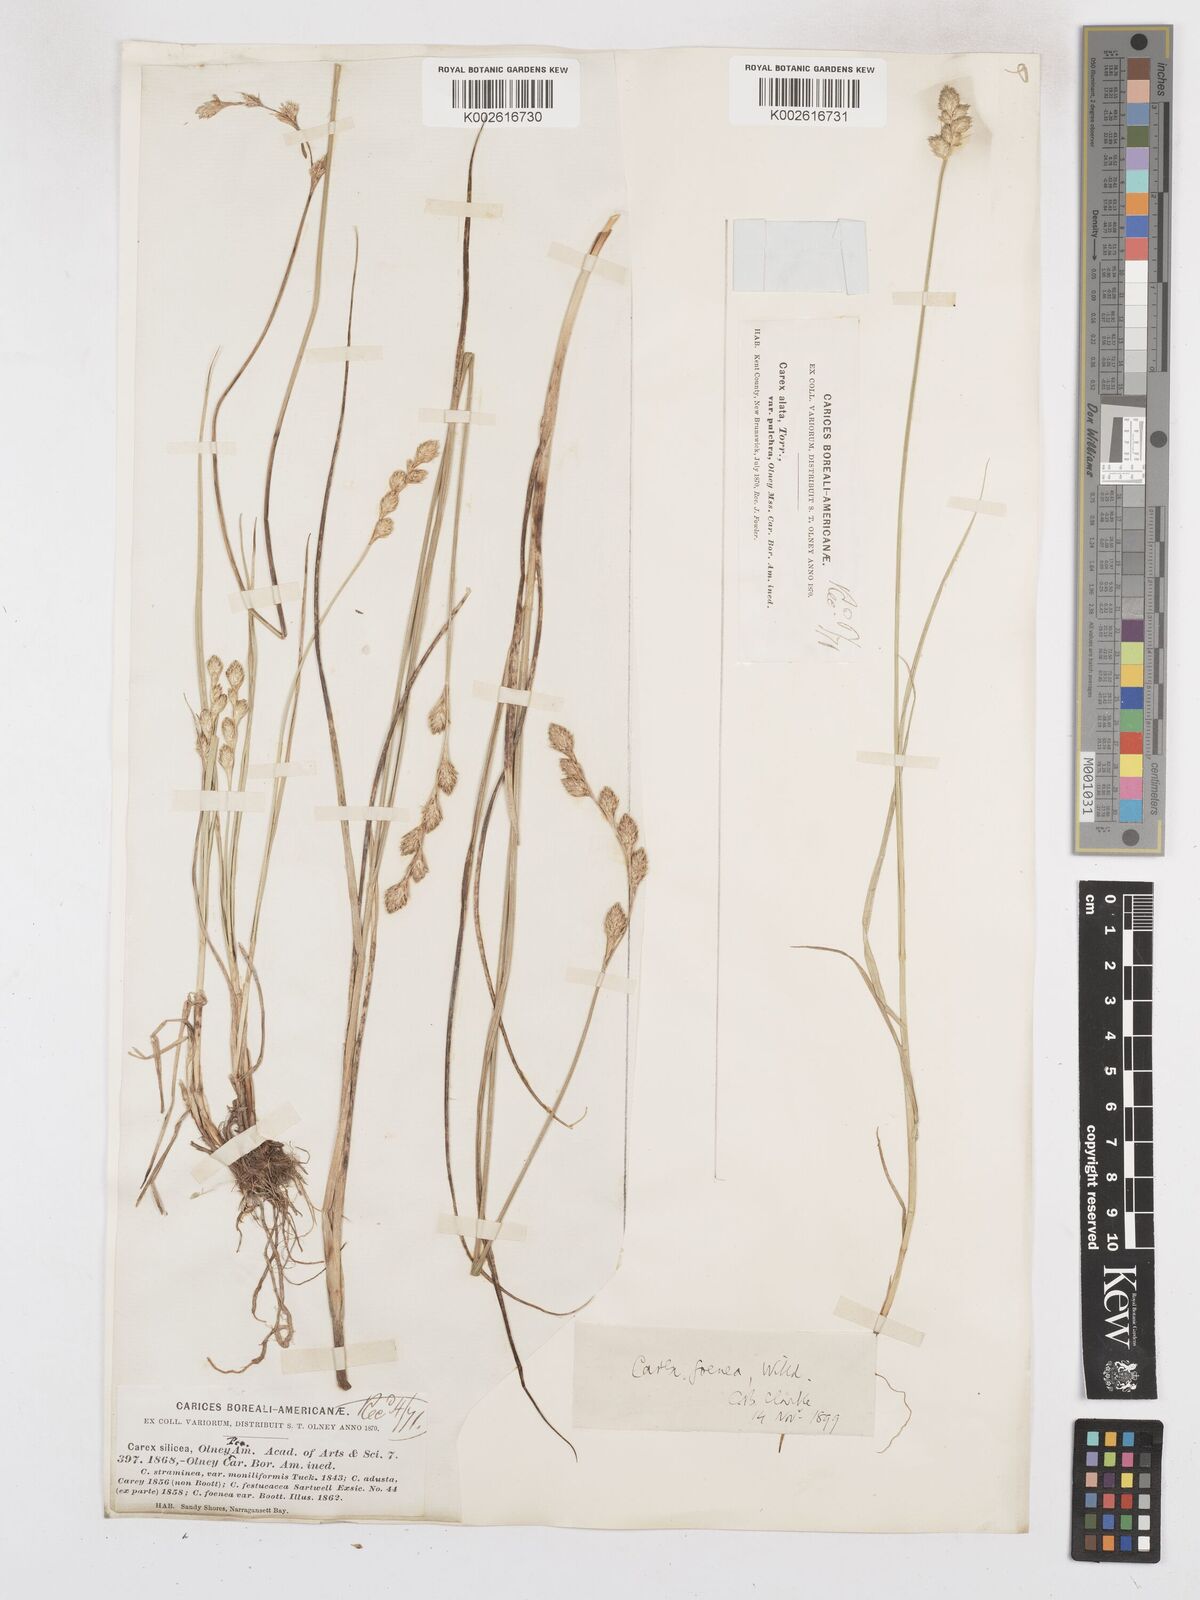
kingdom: Plantae
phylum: Tracheophyta
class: Liliopsida
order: Poales
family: Cyperaceae
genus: Carex
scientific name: Carex argyrantha
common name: Silvery-flowered sedge
